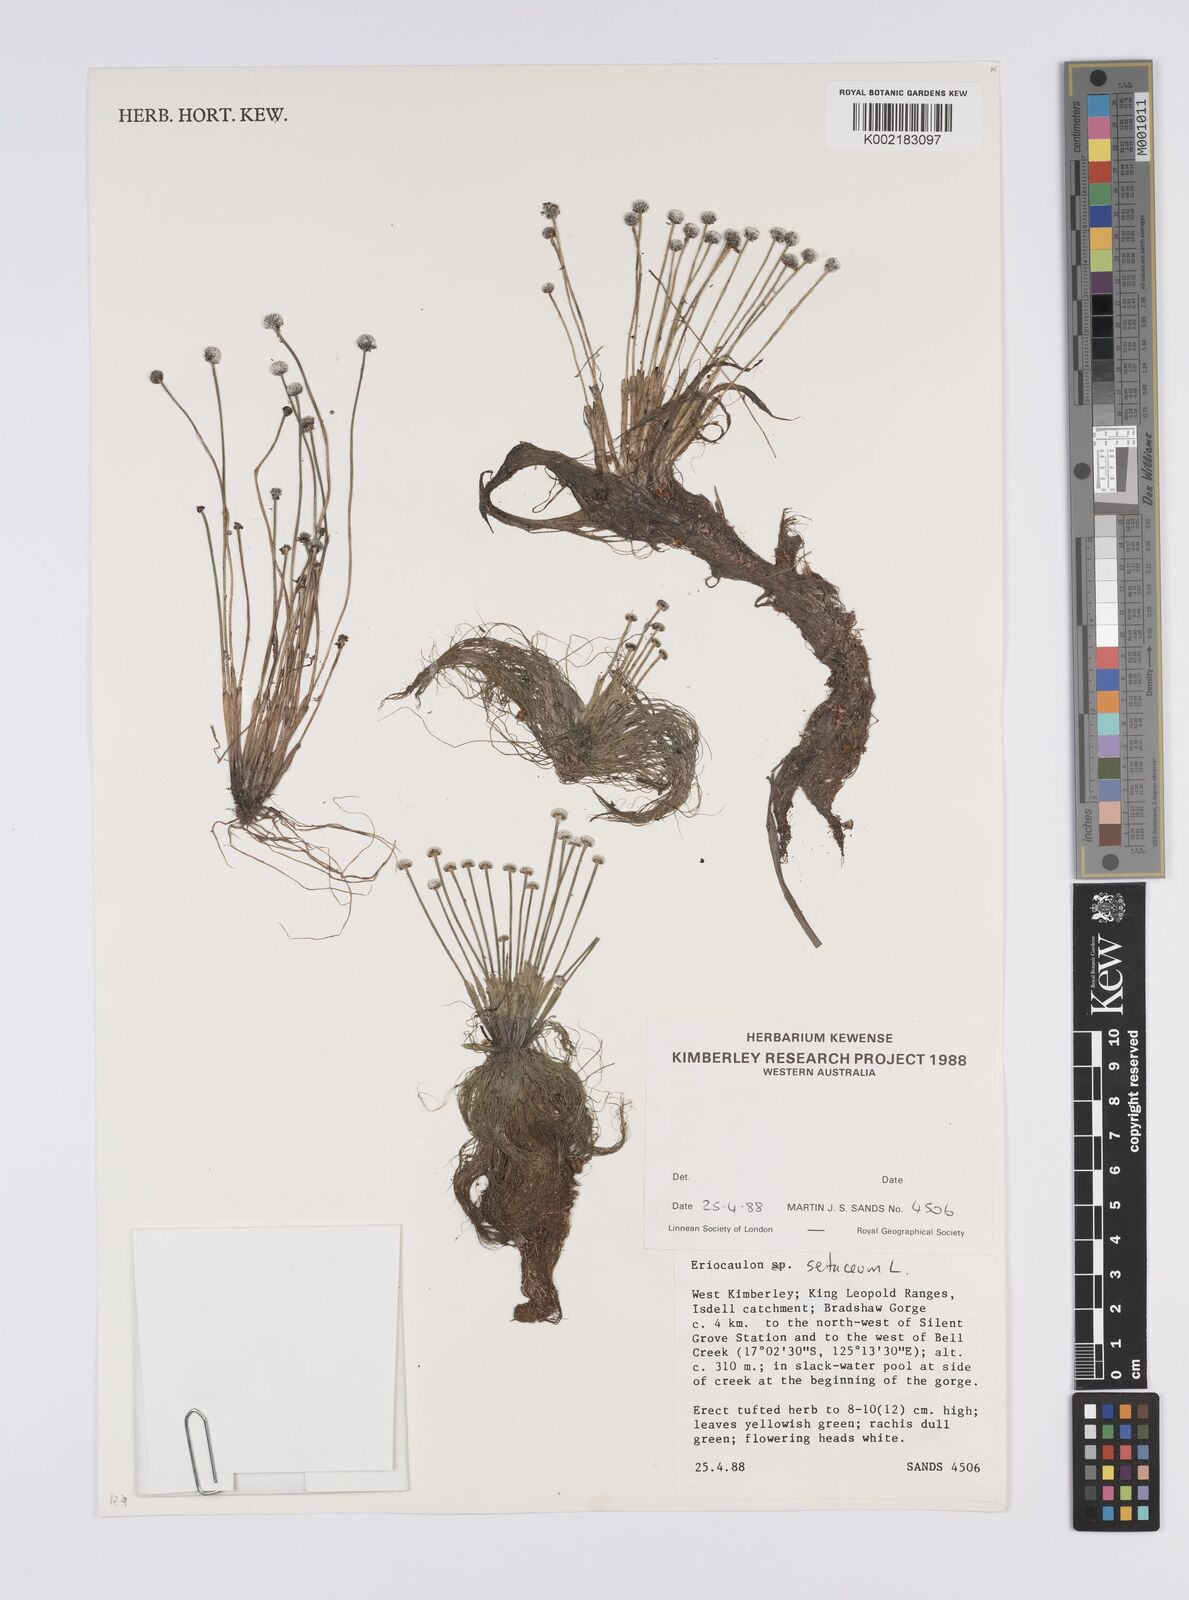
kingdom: Plantae
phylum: Tracheophyta
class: Liliopsida
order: Poales
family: Eriocaulaceae
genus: Eriocaulon
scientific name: Eriocaulon setaceum
